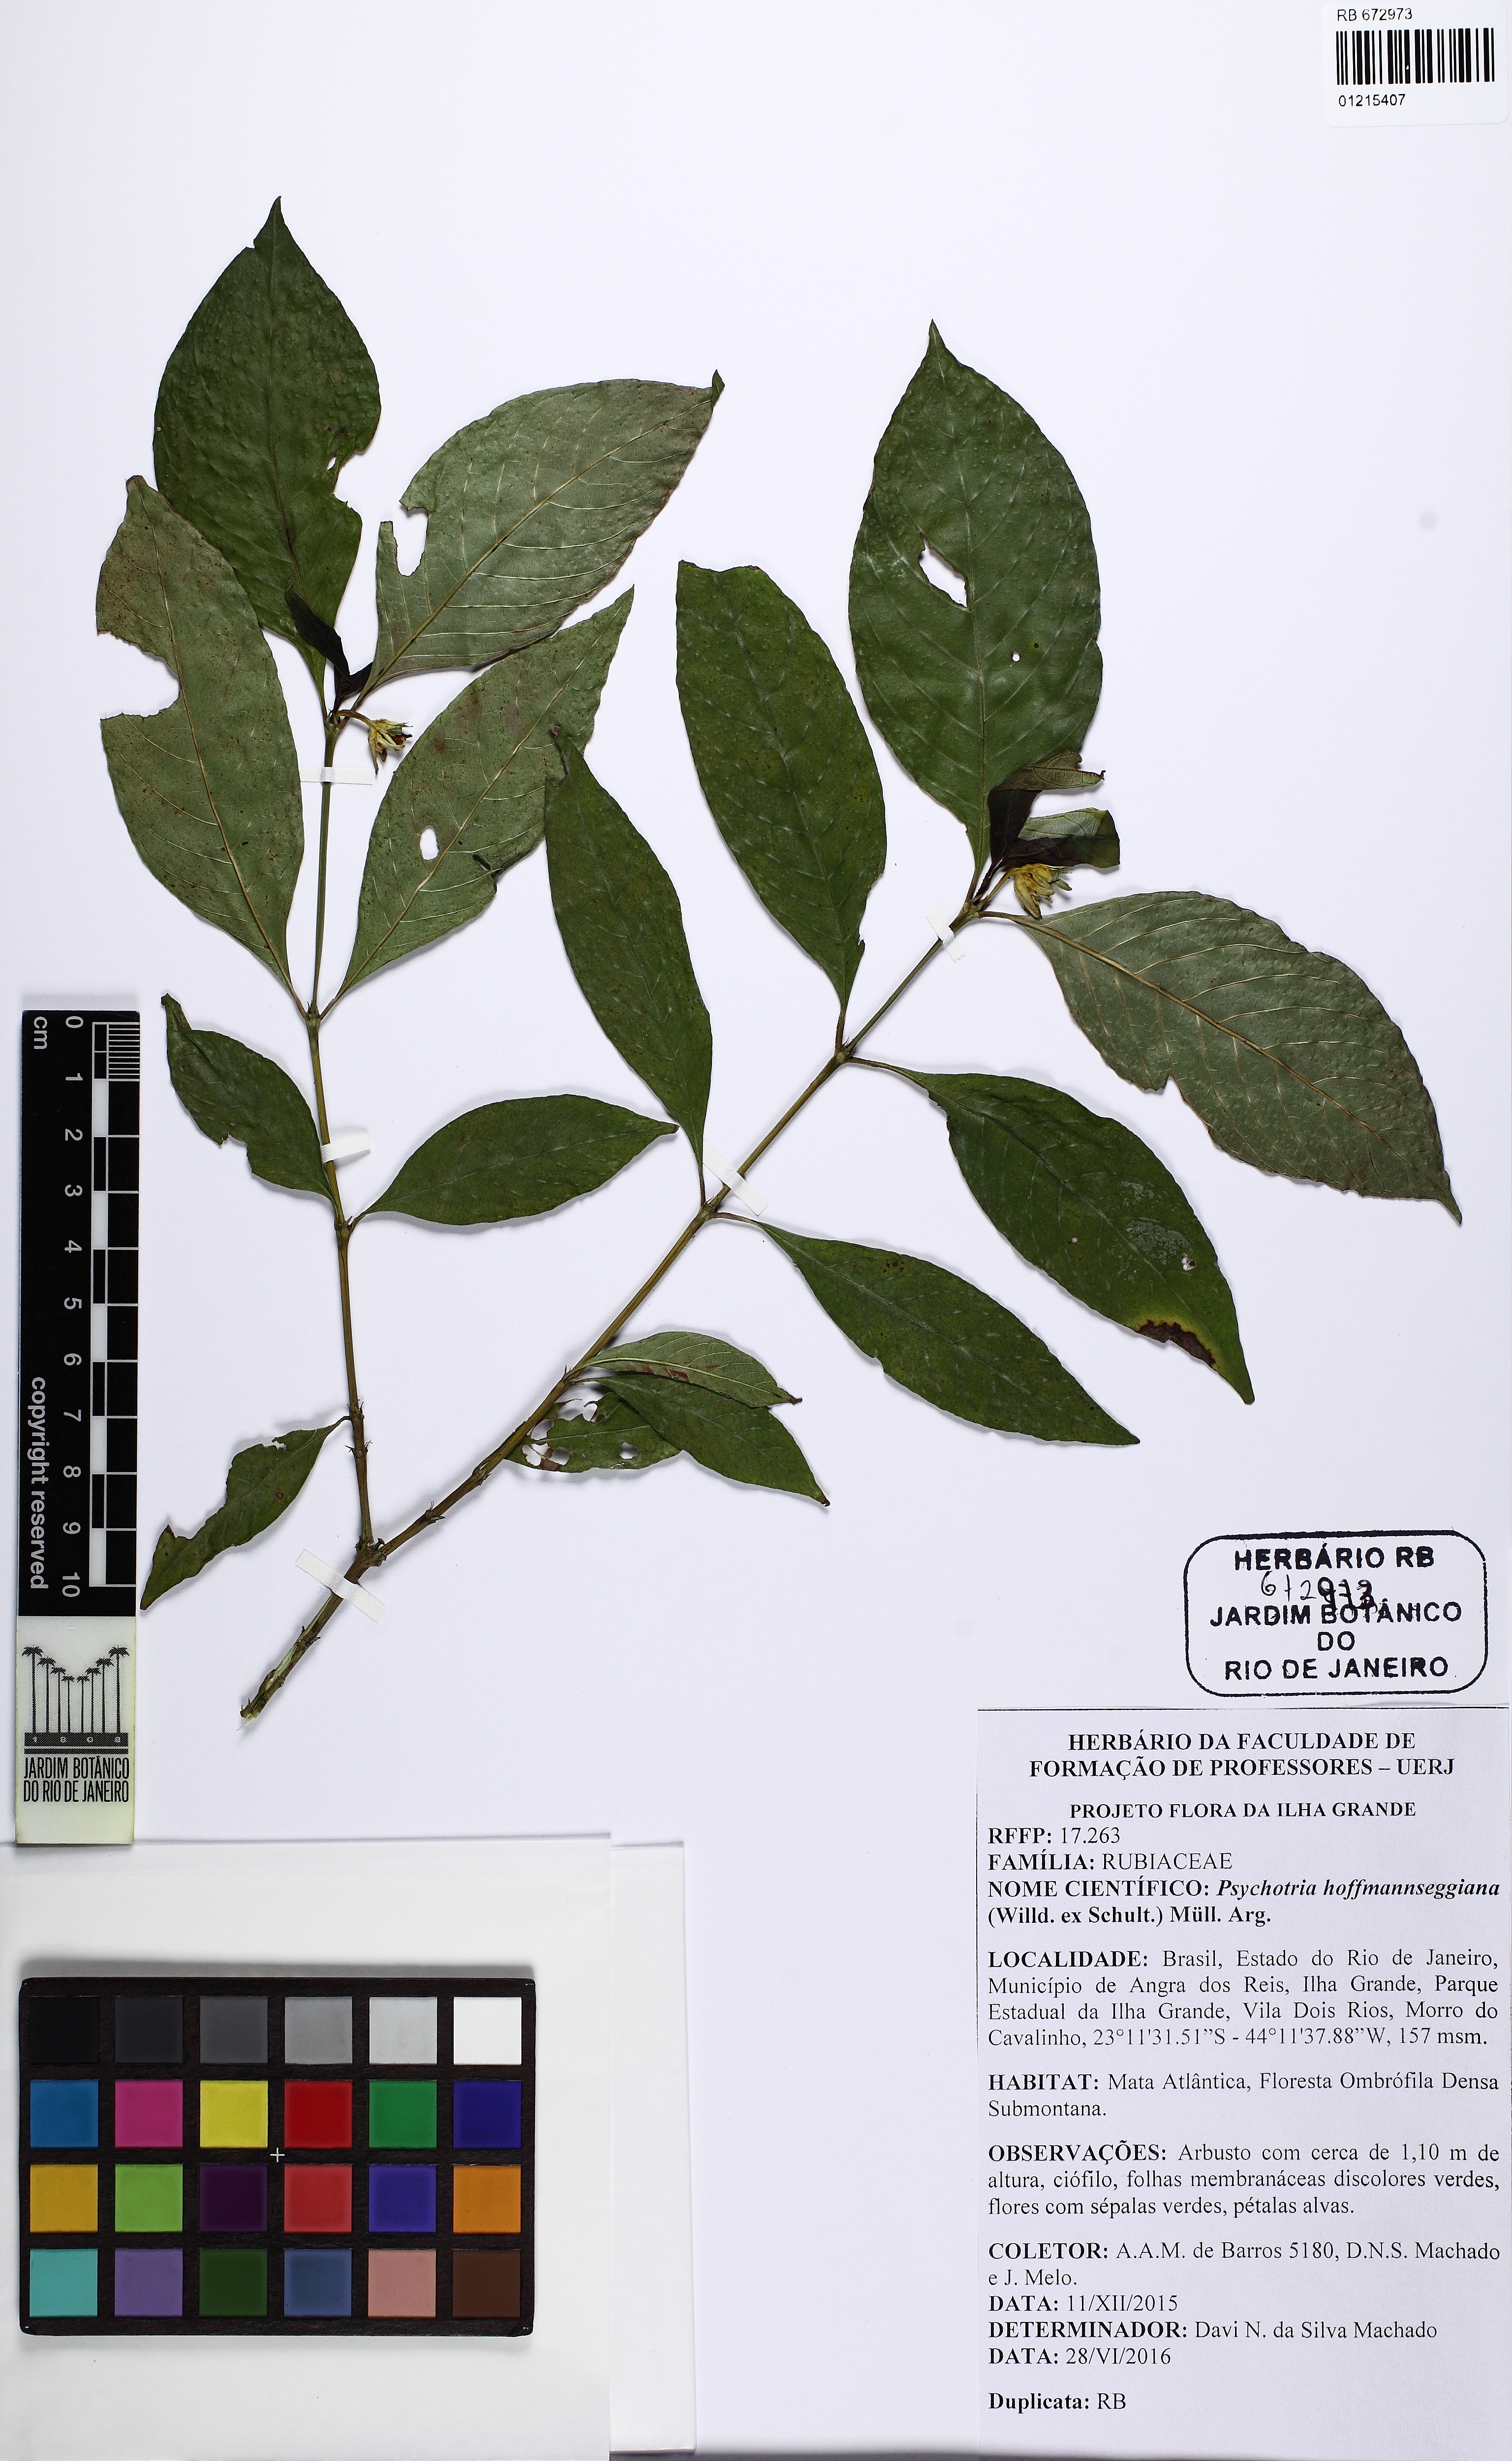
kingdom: Plantae
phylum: Tracheophyta
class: Magnoliopsida
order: Gentianales
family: Rubiaceae
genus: Palicourea
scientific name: Palicourea hoffmannseggiana
